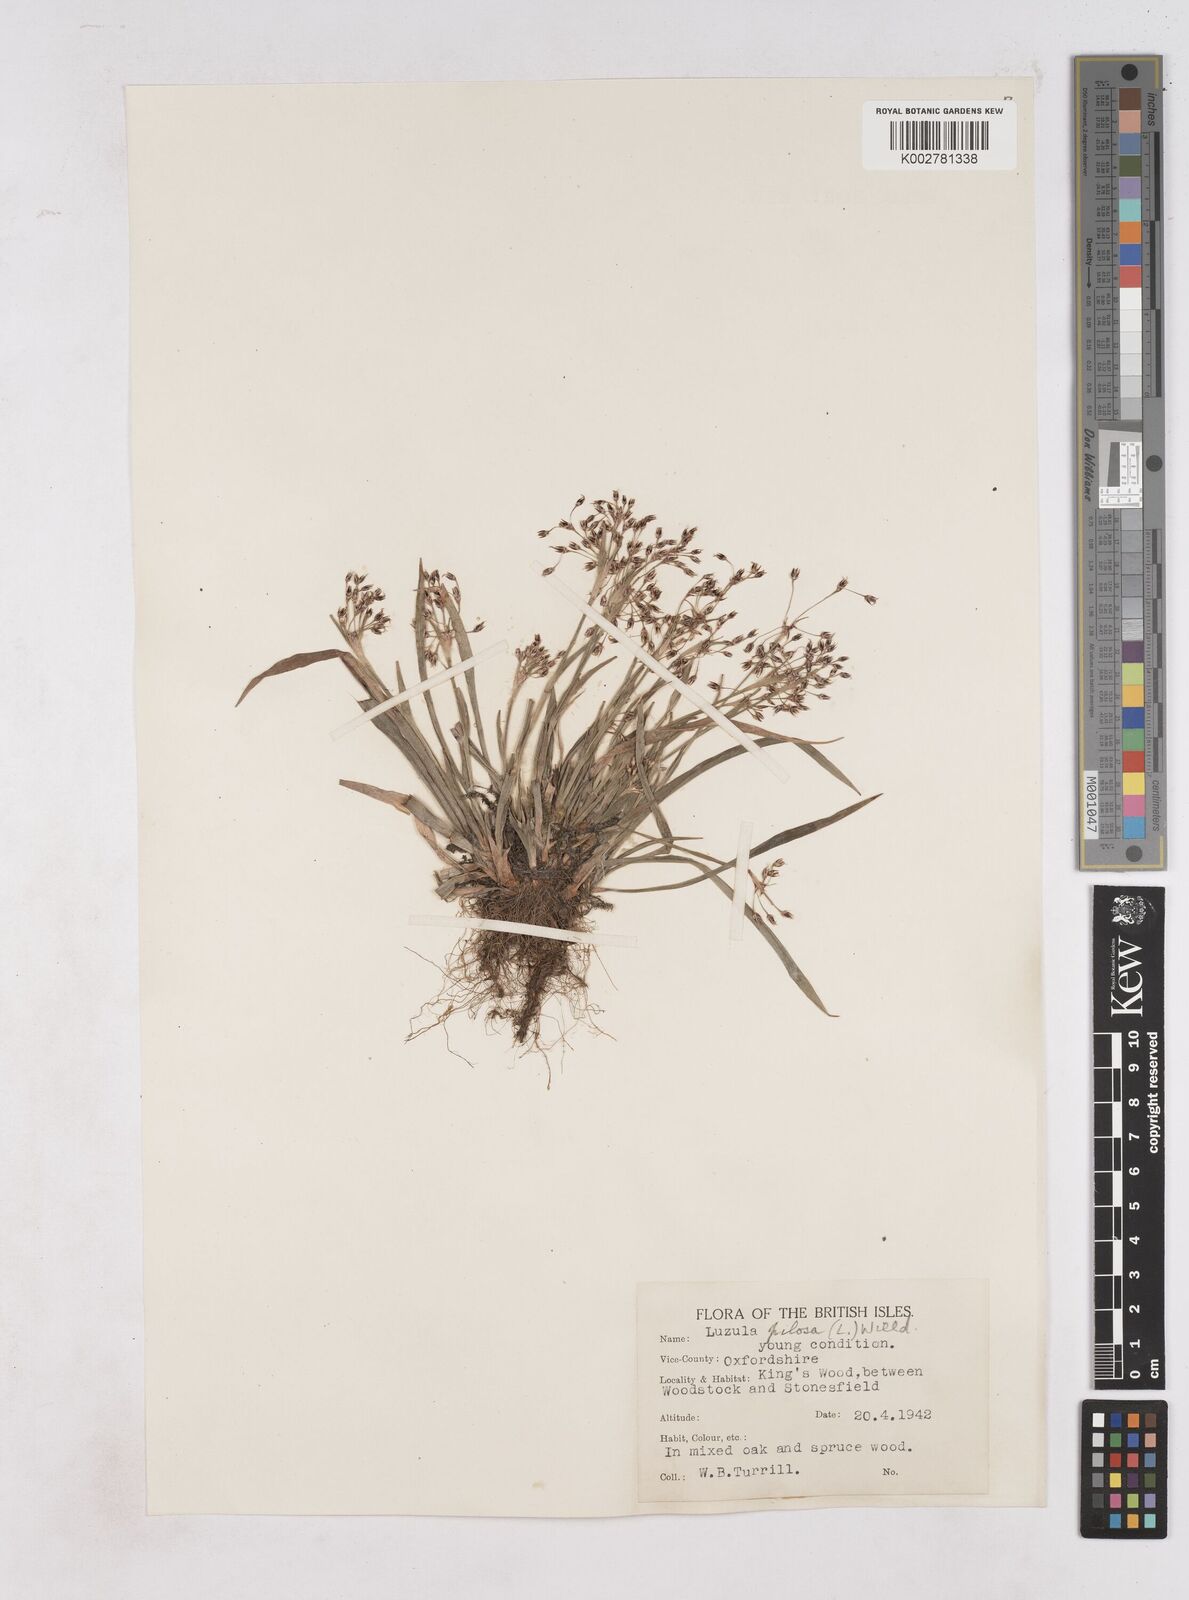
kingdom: Plantae
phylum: Tracheophyta
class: Liliopsida
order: Poales
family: Juncaceae
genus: Luzula
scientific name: Luzula pilosa
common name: Hairy wood-rush
